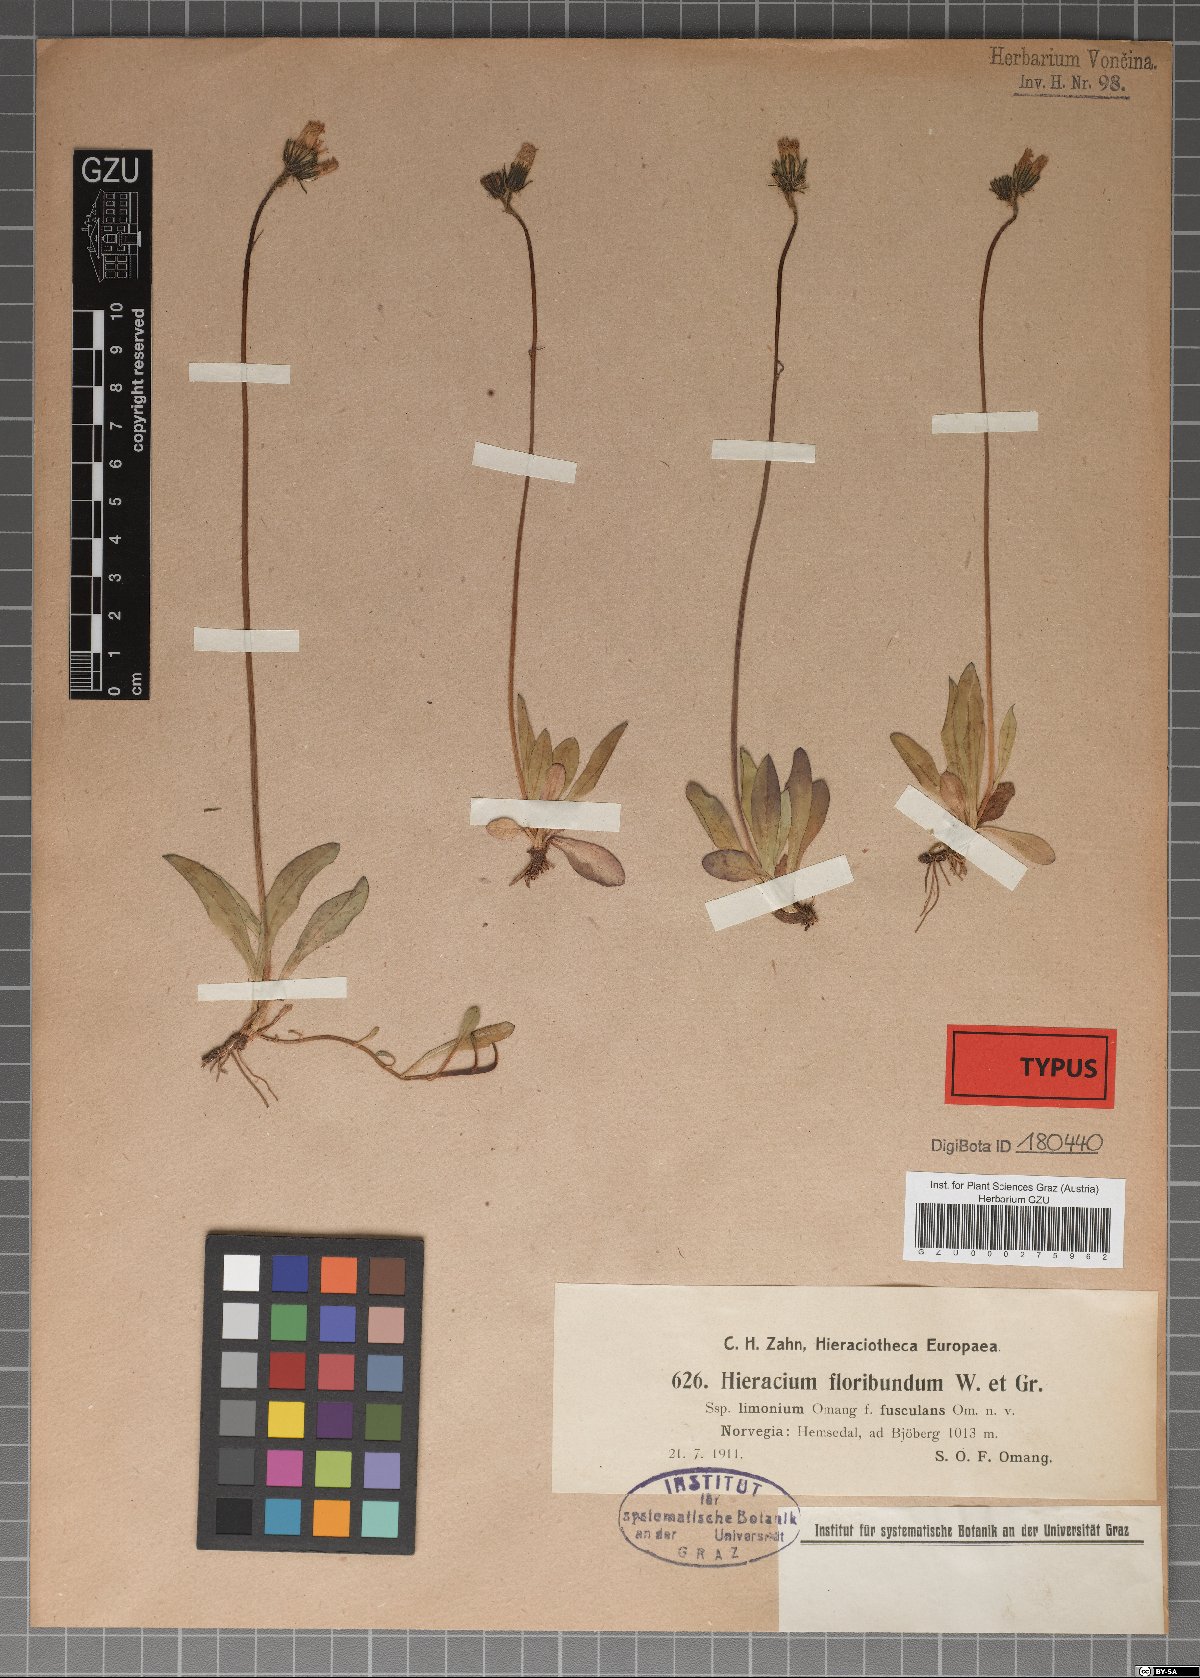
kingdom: Plantae
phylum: Tracheophyta
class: Magnoliopsida
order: Asterales
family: Asteraceae
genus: Hieracium
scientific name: Hieracium floribundum
